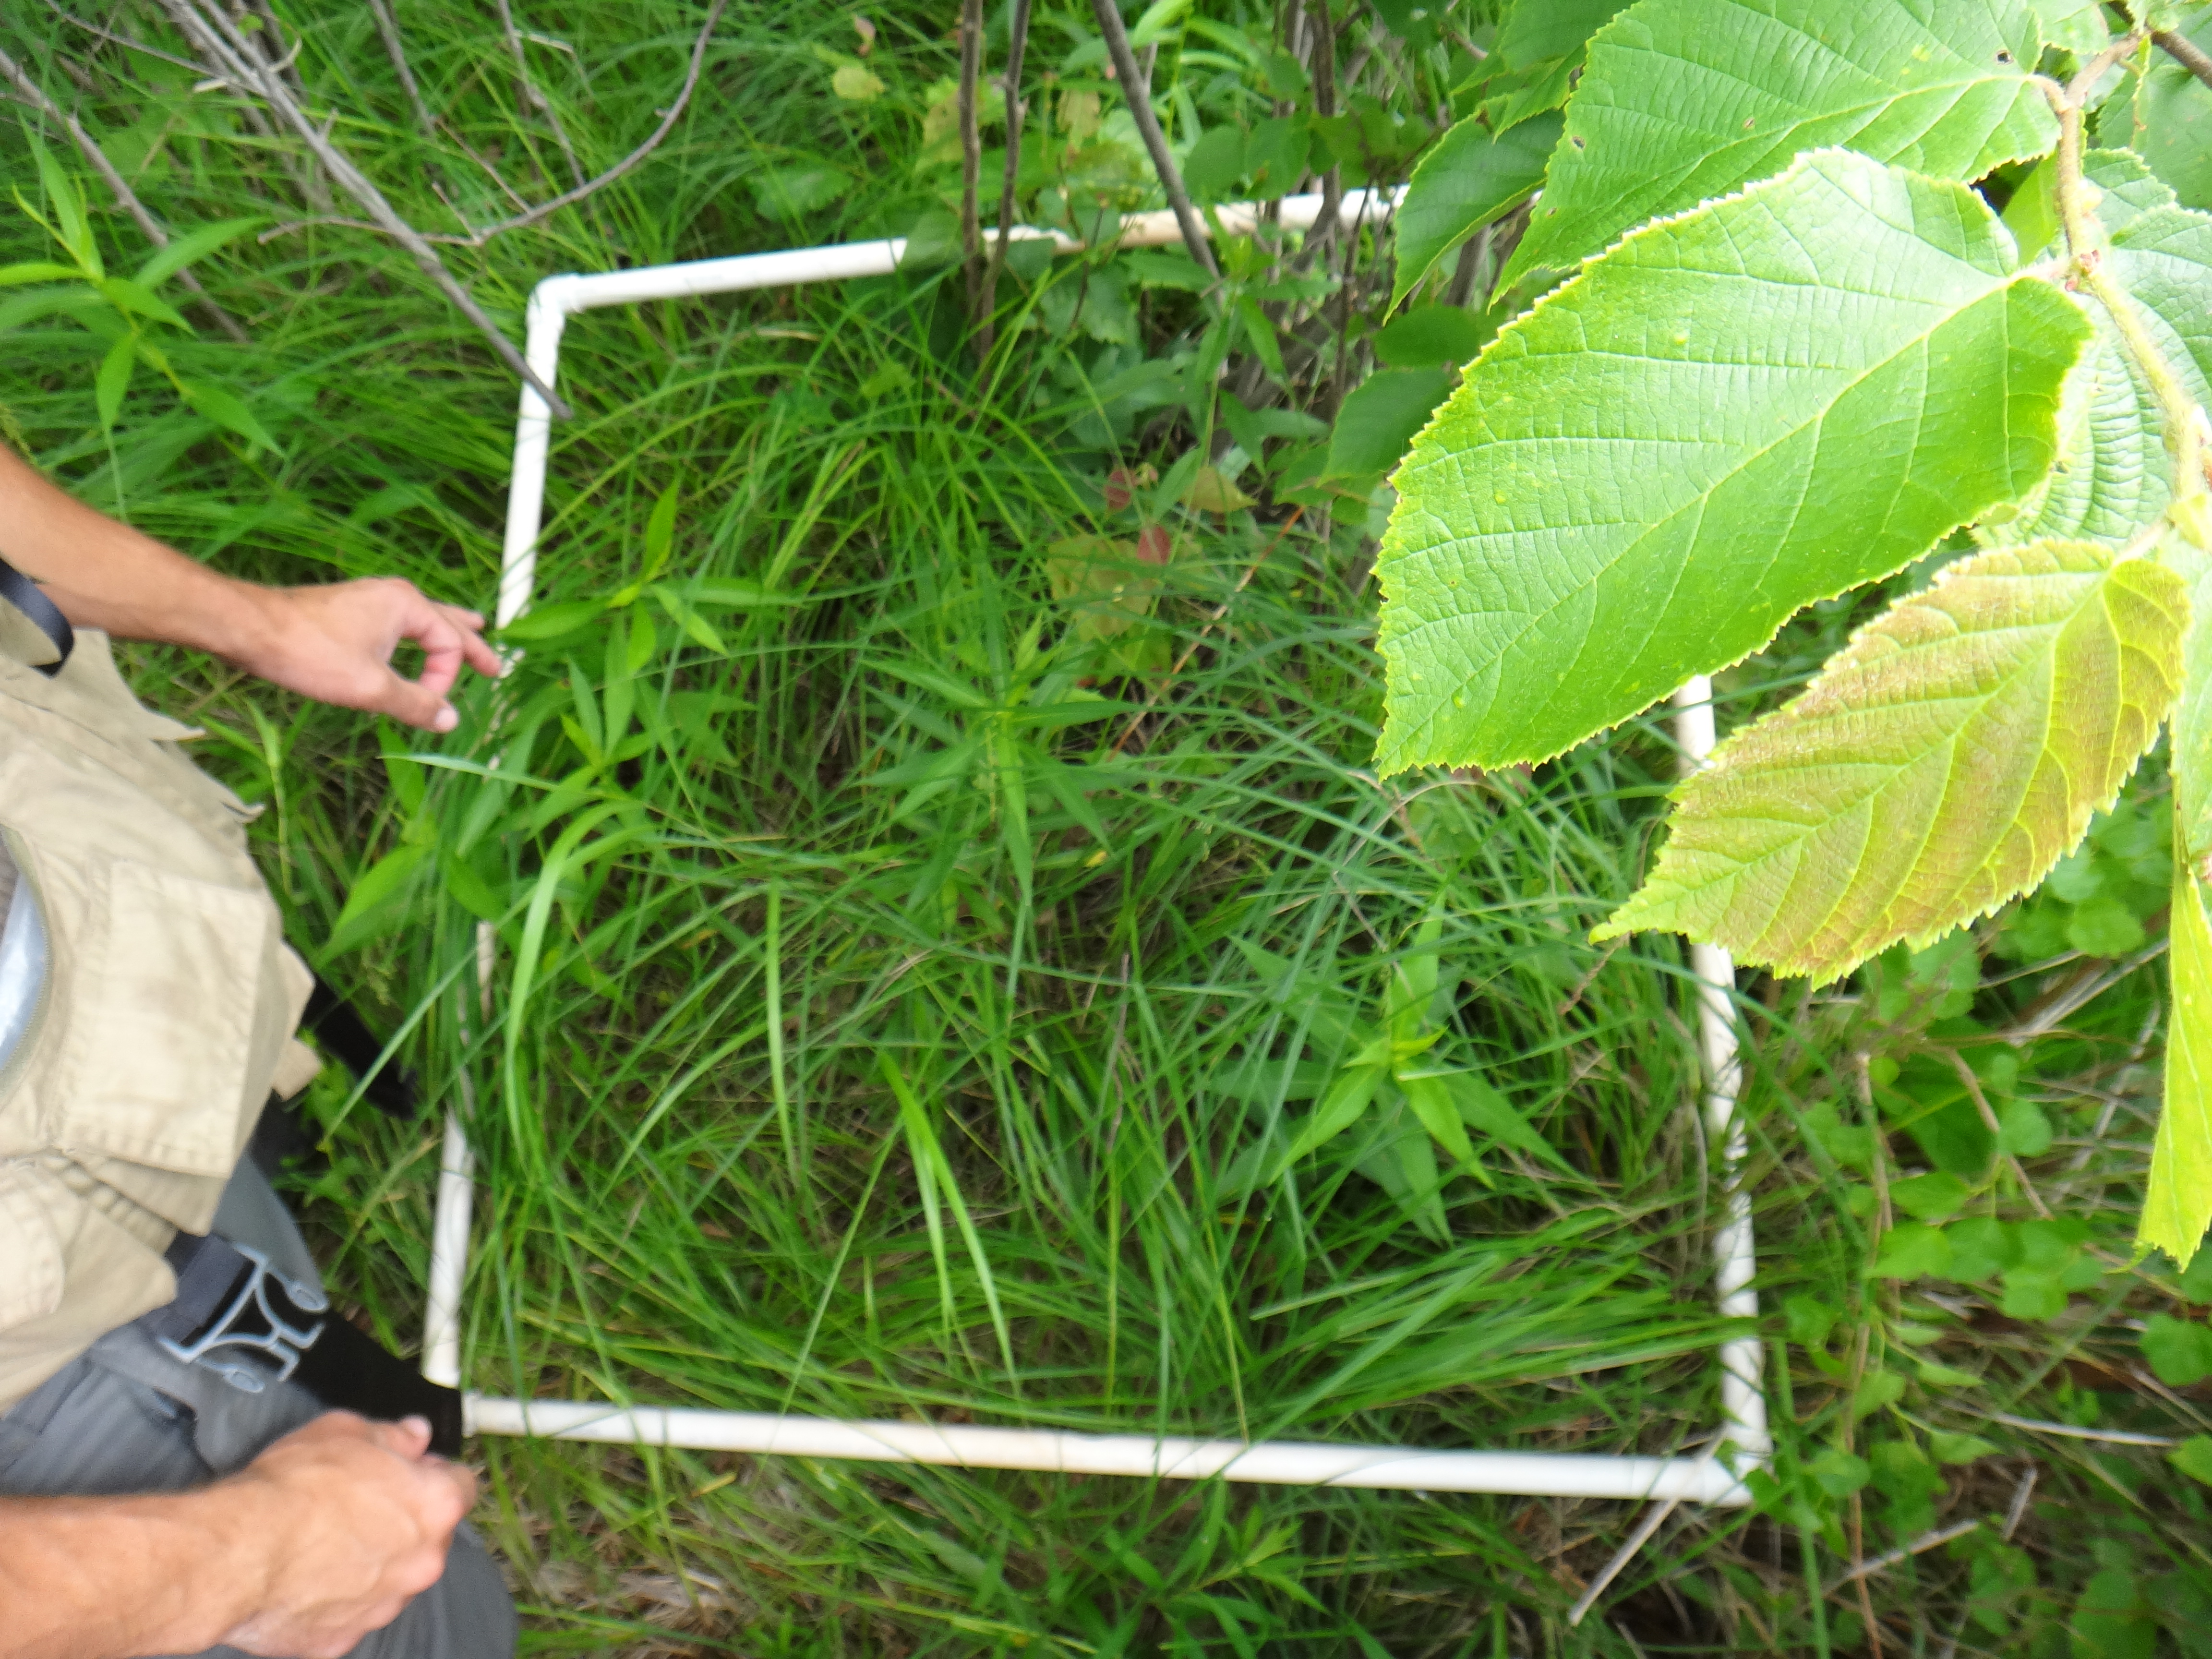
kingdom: Plantae
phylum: Tracheophyta
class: Magnoliopsida
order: Asterales
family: Asteraceae
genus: Symphyotrichum
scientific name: Symphyotrichum novae-angliae
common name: Michaelmas daisy
